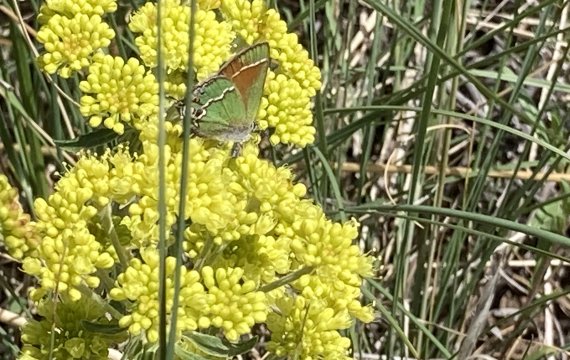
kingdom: Animalia
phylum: Arthropoda
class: Insecta
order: Lepidoptera
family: Lycaenidae
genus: Mitoura
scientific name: Mitoura gryneus
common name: Juniper Hairstreak
